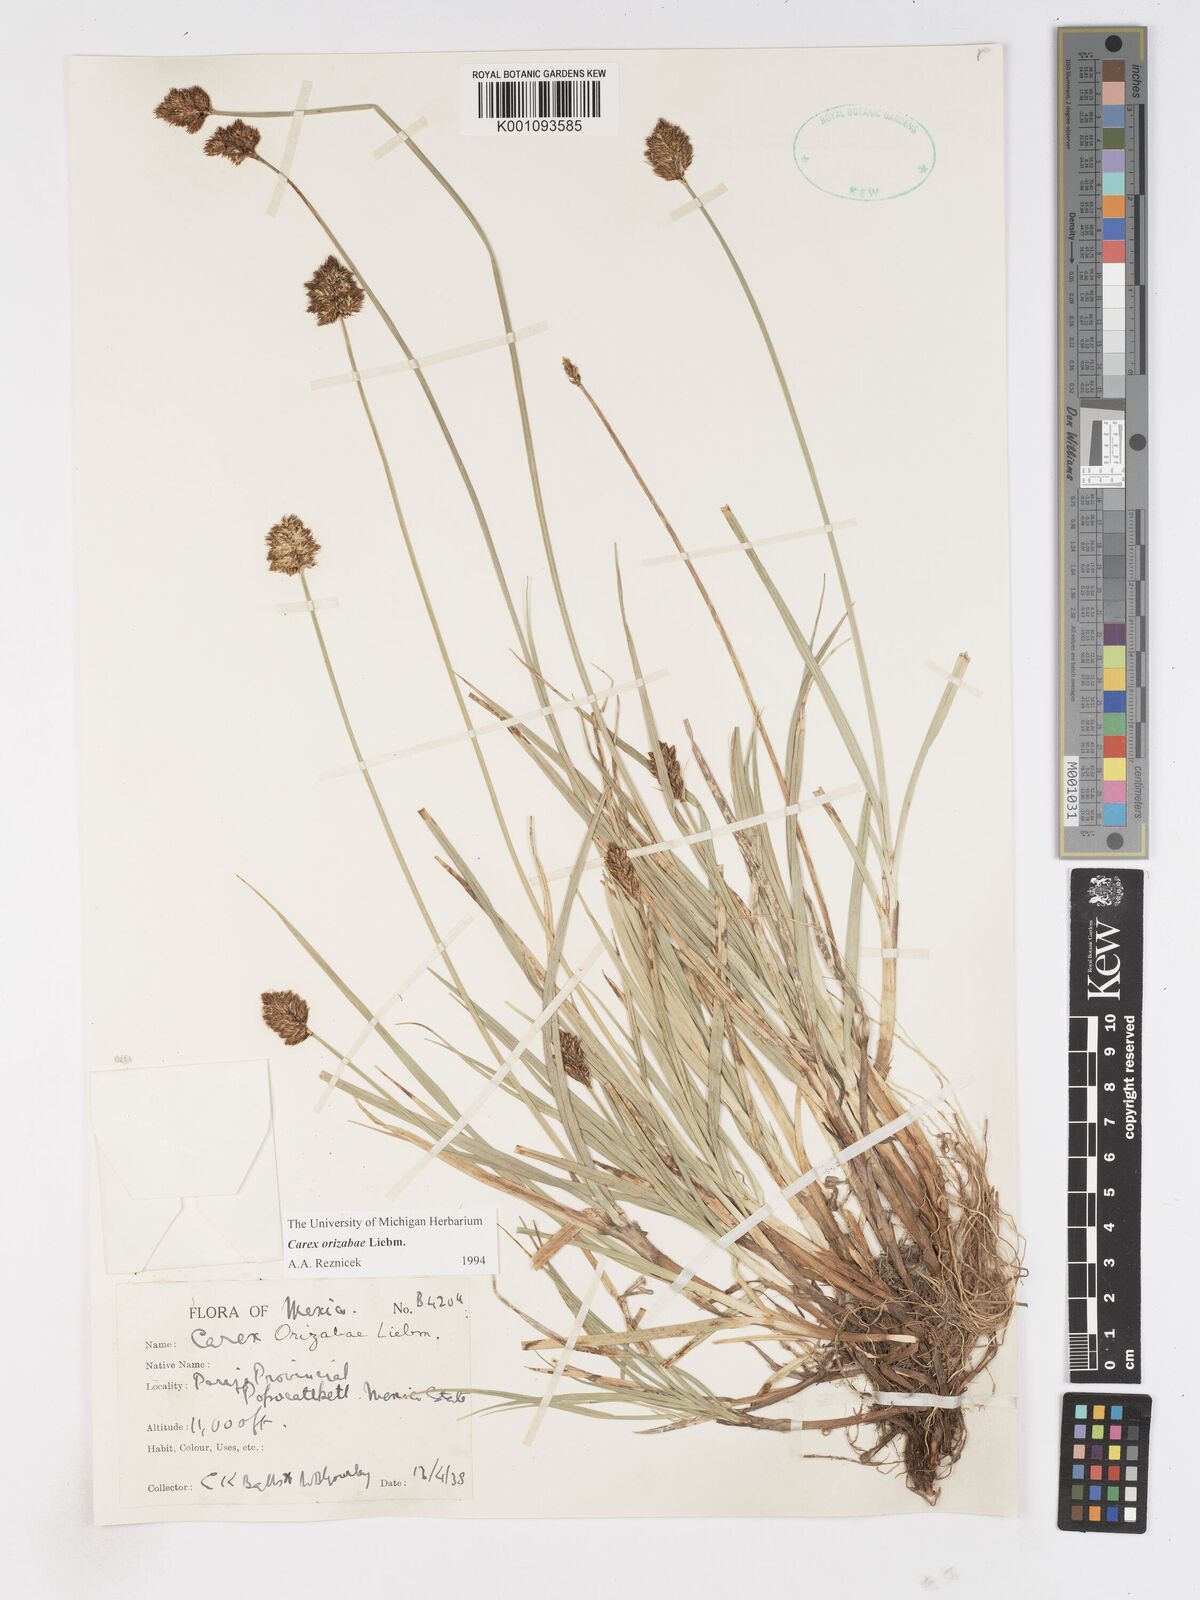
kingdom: Plantae
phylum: Tracheophyta
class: Liliopsida
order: Poales
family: Cyperaceae
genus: Carex
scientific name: Carex orizabae
